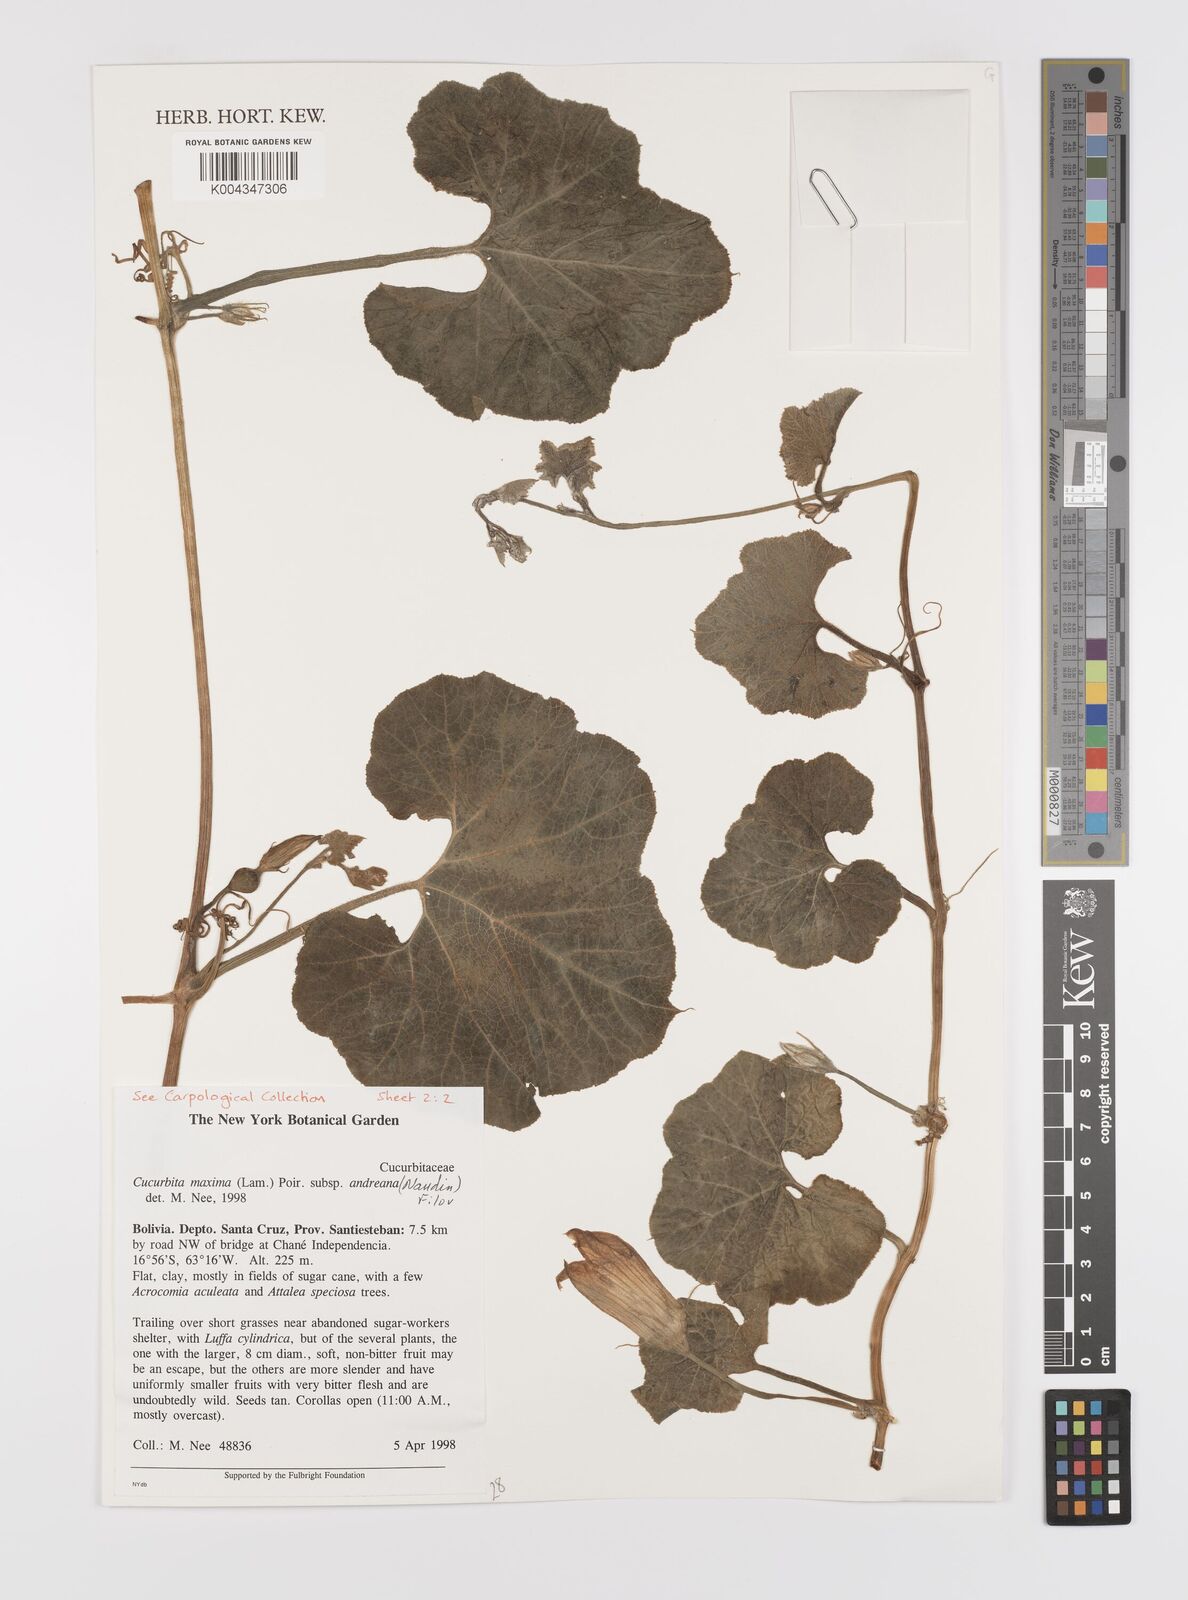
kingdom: Plantae
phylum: Tracheophyta
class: Magnoliopsida
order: Cucurbitales
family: Cucurbitaceae
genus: Cucurbita
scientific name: Cucurbita maxima
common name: Pumpkin
